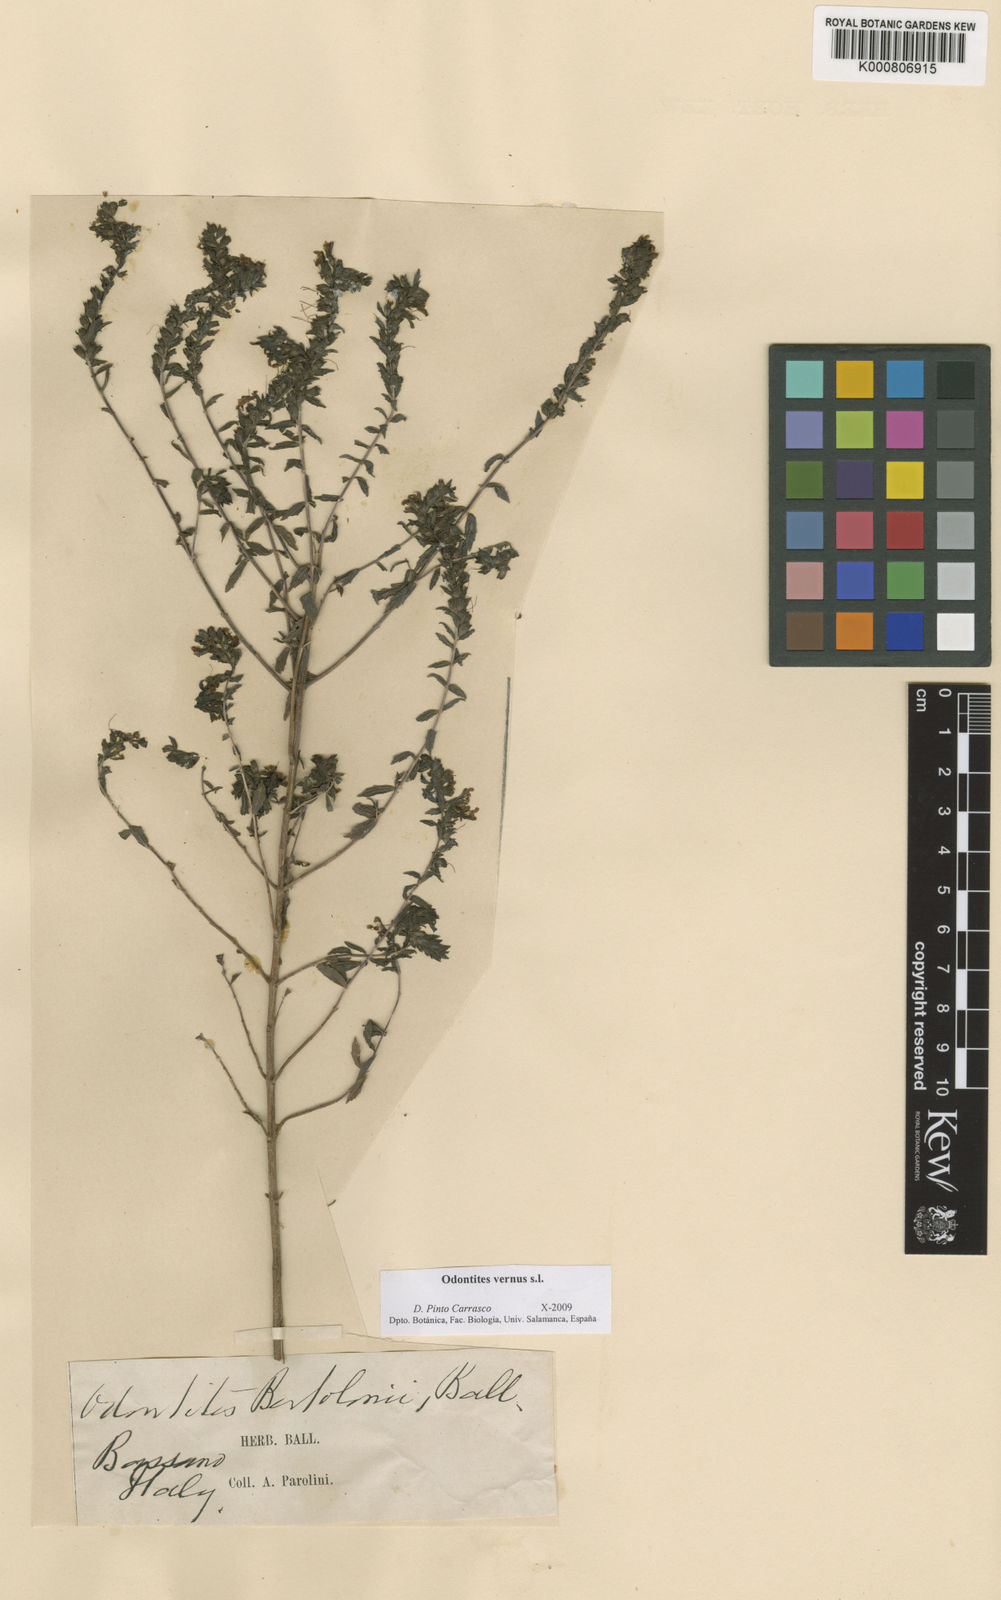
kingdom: Plantae
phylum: Tracheophyta
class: Magnoliopsida
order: Lamiales
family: Orobanchaceae
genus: Odontites
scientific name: Odontites vernus
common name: Red bartsia
